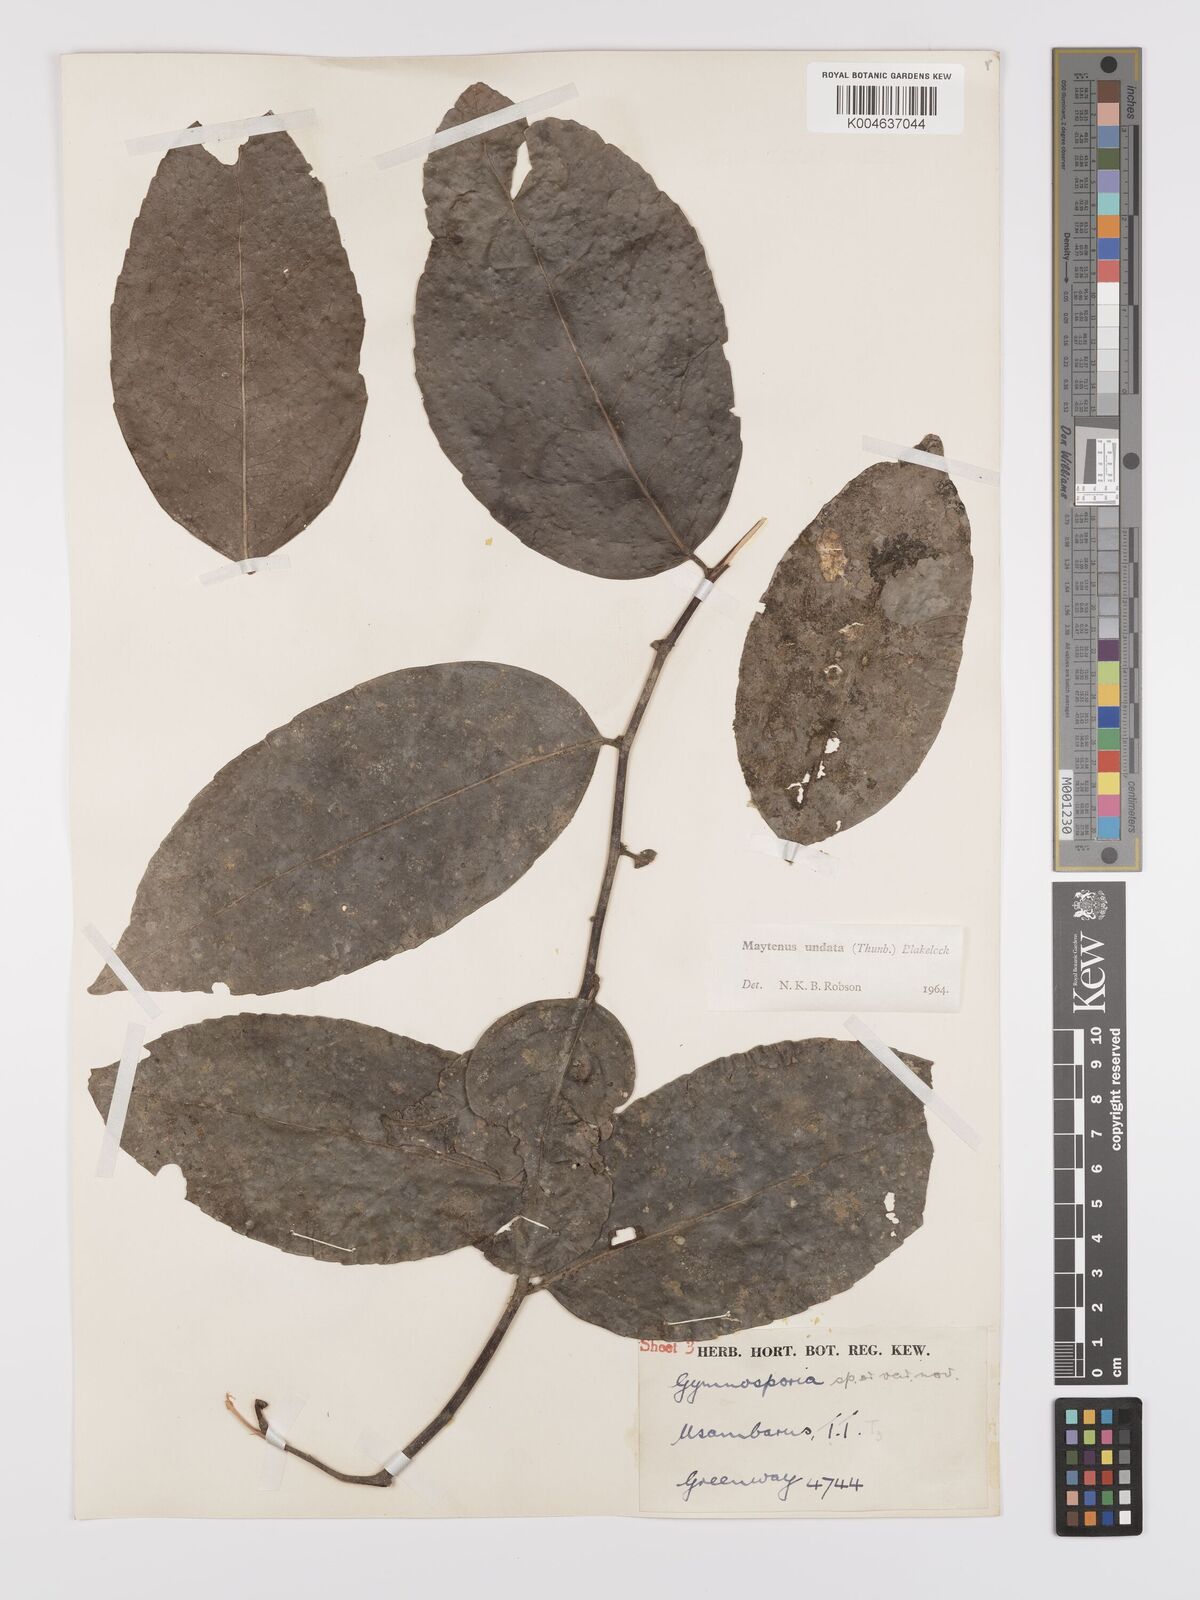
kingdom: Plantae
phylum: Tracheophyta
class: Magnoliopsida
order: Celastrales
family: Celastraceae
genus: Gymnosporia
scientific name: Gymnosporia undata
